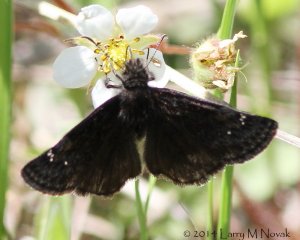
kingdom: Animalia
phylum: Arthropoda
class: Insecta
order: Lepidoptera
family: Hesperiidae
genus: Gesta
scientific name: Gesta
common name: Columbine Duskywing
